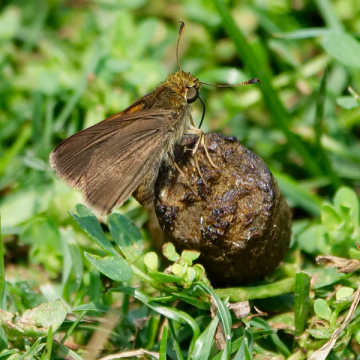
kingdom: Animalia
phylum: Arthropoda
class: Insecta
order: Lepidoptera
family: Hesperiidae
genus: Polites
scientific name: Polites themistocles
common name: Tawny-edged Skipper
